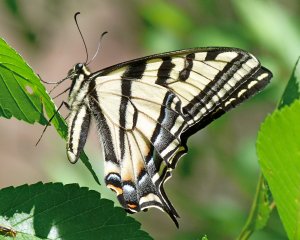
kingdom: Animalia
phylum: Arthropoda
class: Insecta
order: Lepidoptera
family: Papilionidae
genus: Pterourus
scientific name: Pterourus rutulus
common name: Western Tiger Swallowtail
